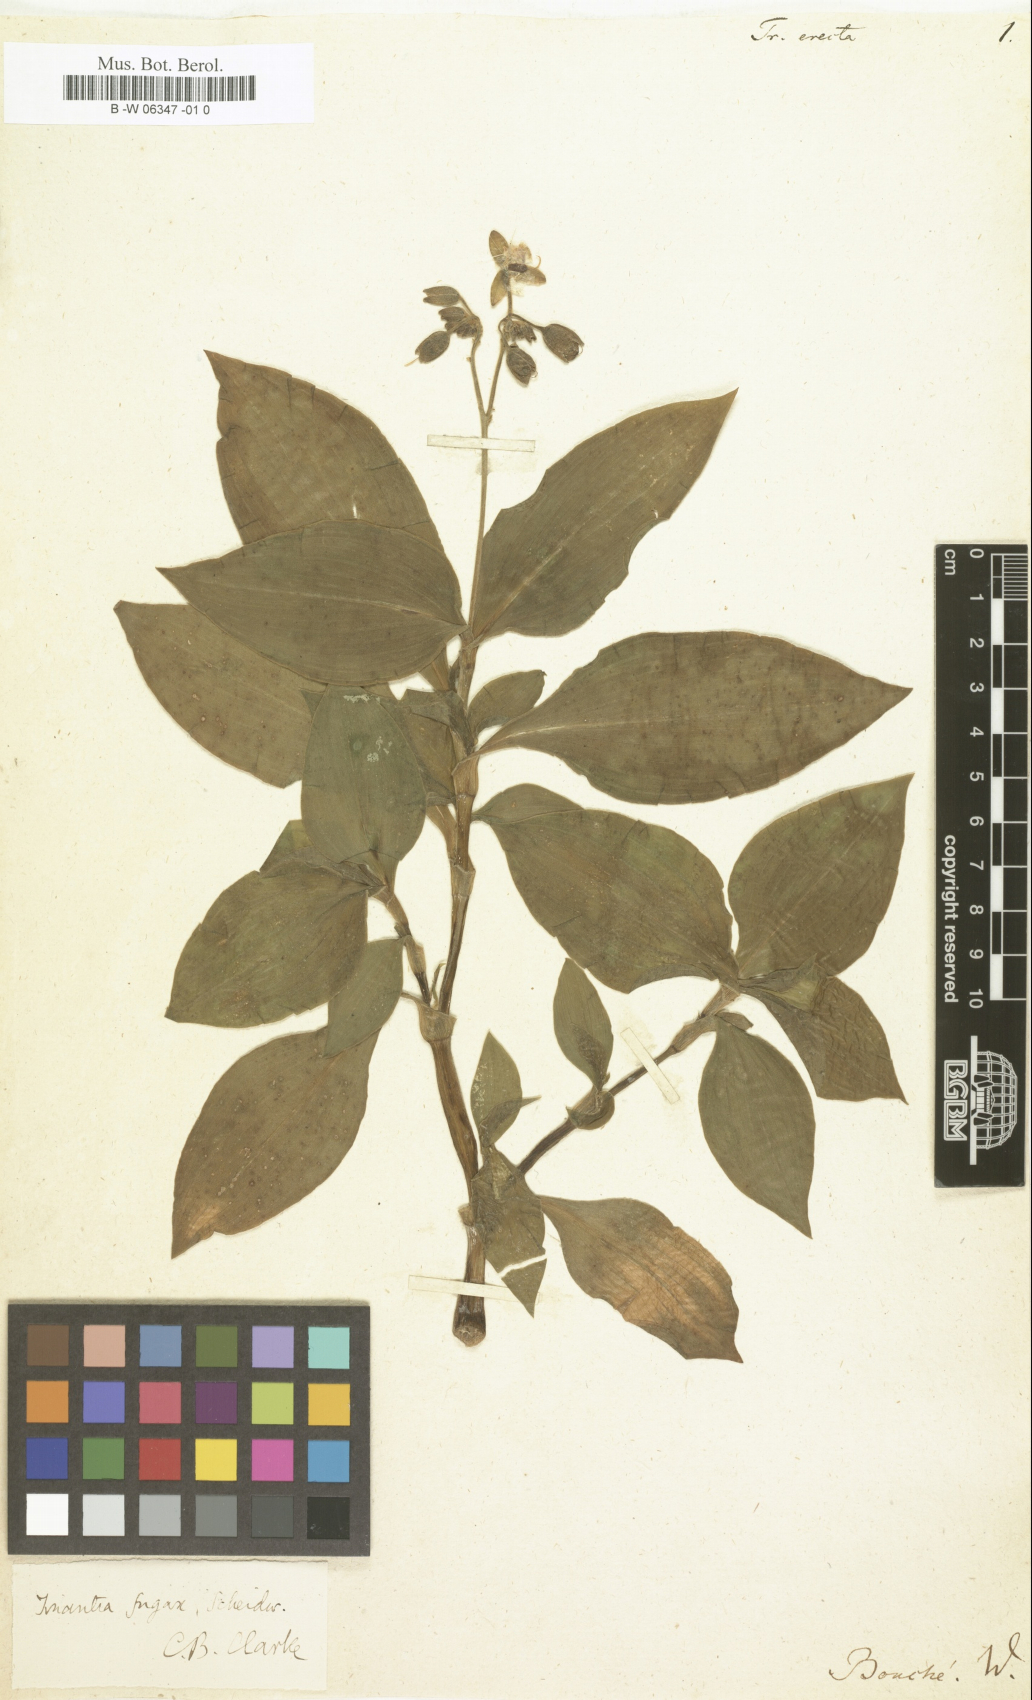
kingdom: Plantae
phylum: Tracheophyta
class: Liliopsida
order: Commelinales
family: Commelinaceae
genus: Tinantia
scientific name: Tinantia erecta
